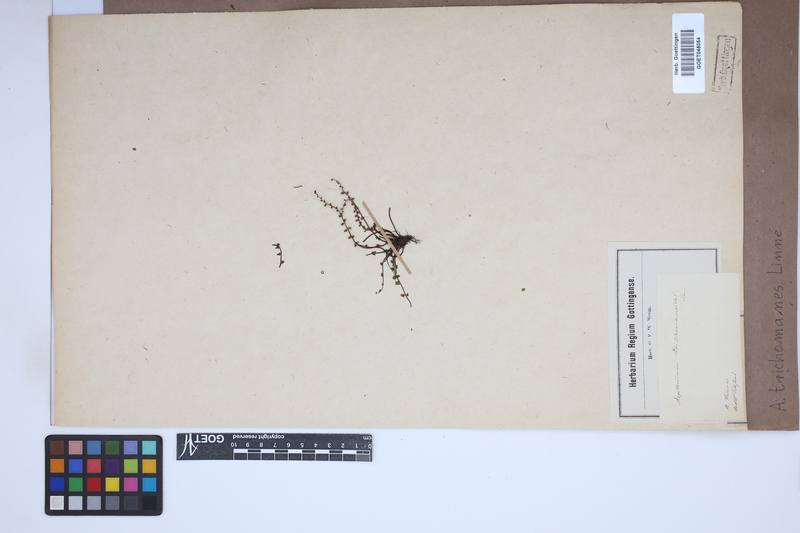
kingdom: Plantae
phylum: Tracheophyta
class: Polypodiopsida
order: Polypodiales
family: Aspleniaceae
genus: Asplenium
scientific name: Asplenium trichomanes
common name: Maidenhair spleenwort
